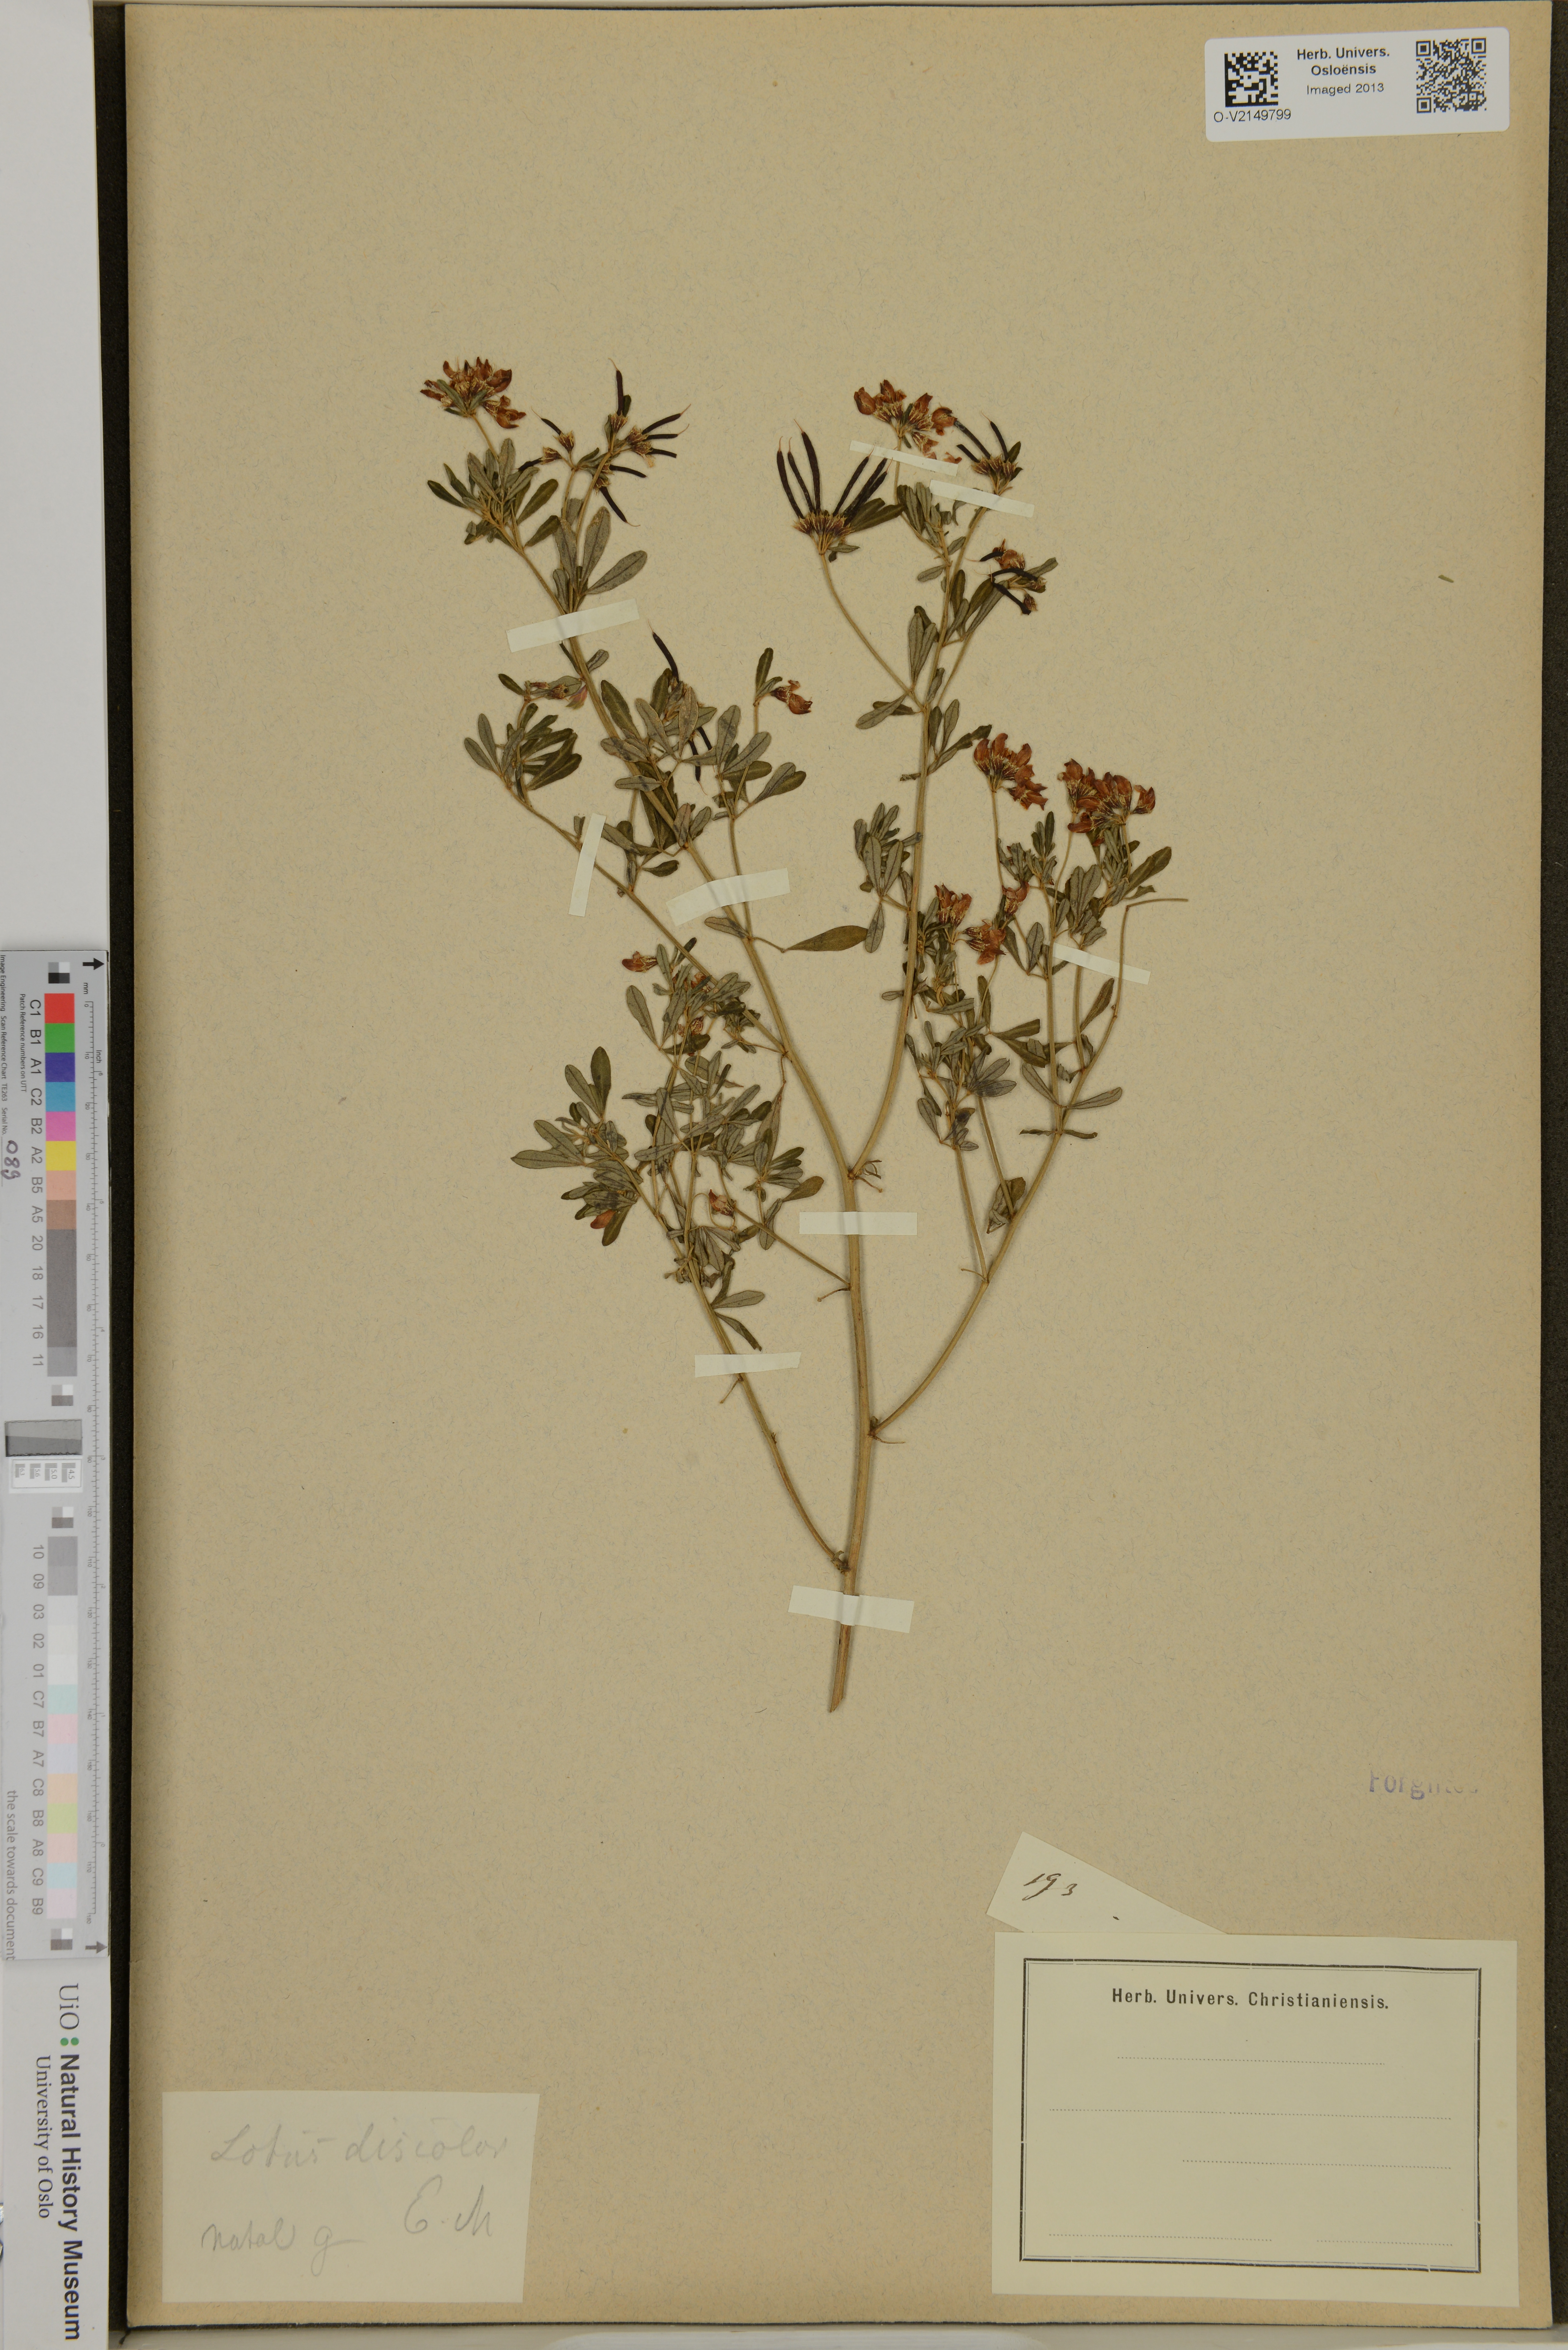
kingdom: Plantae
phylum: Tracheophyta
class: Magnoliopsida
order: Fabales
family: Fabaceae
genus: Lotus
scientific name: Lotus discolor
